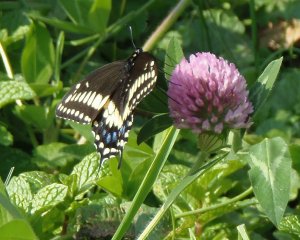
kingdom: Animalia
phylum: Arthropoda
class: Insecta
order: Lepidoptera
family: Papilionidae
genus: Papilio
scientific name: Papilio polyxenes
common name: Black Swallowtail
